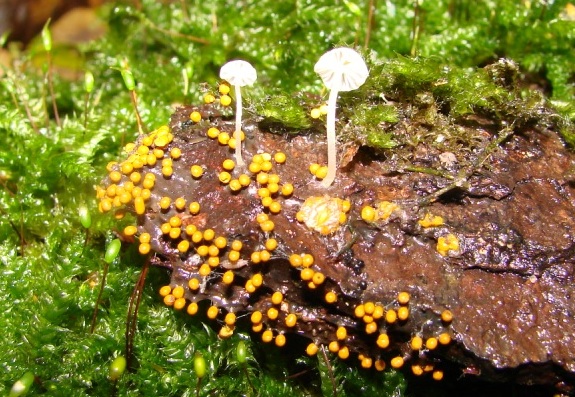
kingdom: Fungi
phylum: Basidiomycota
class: Agaricomycetes
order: Agaricales
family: Porotheleaceae
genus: Phloeomana
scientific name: Phloeomana speirea
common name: kvist-huesvamp
